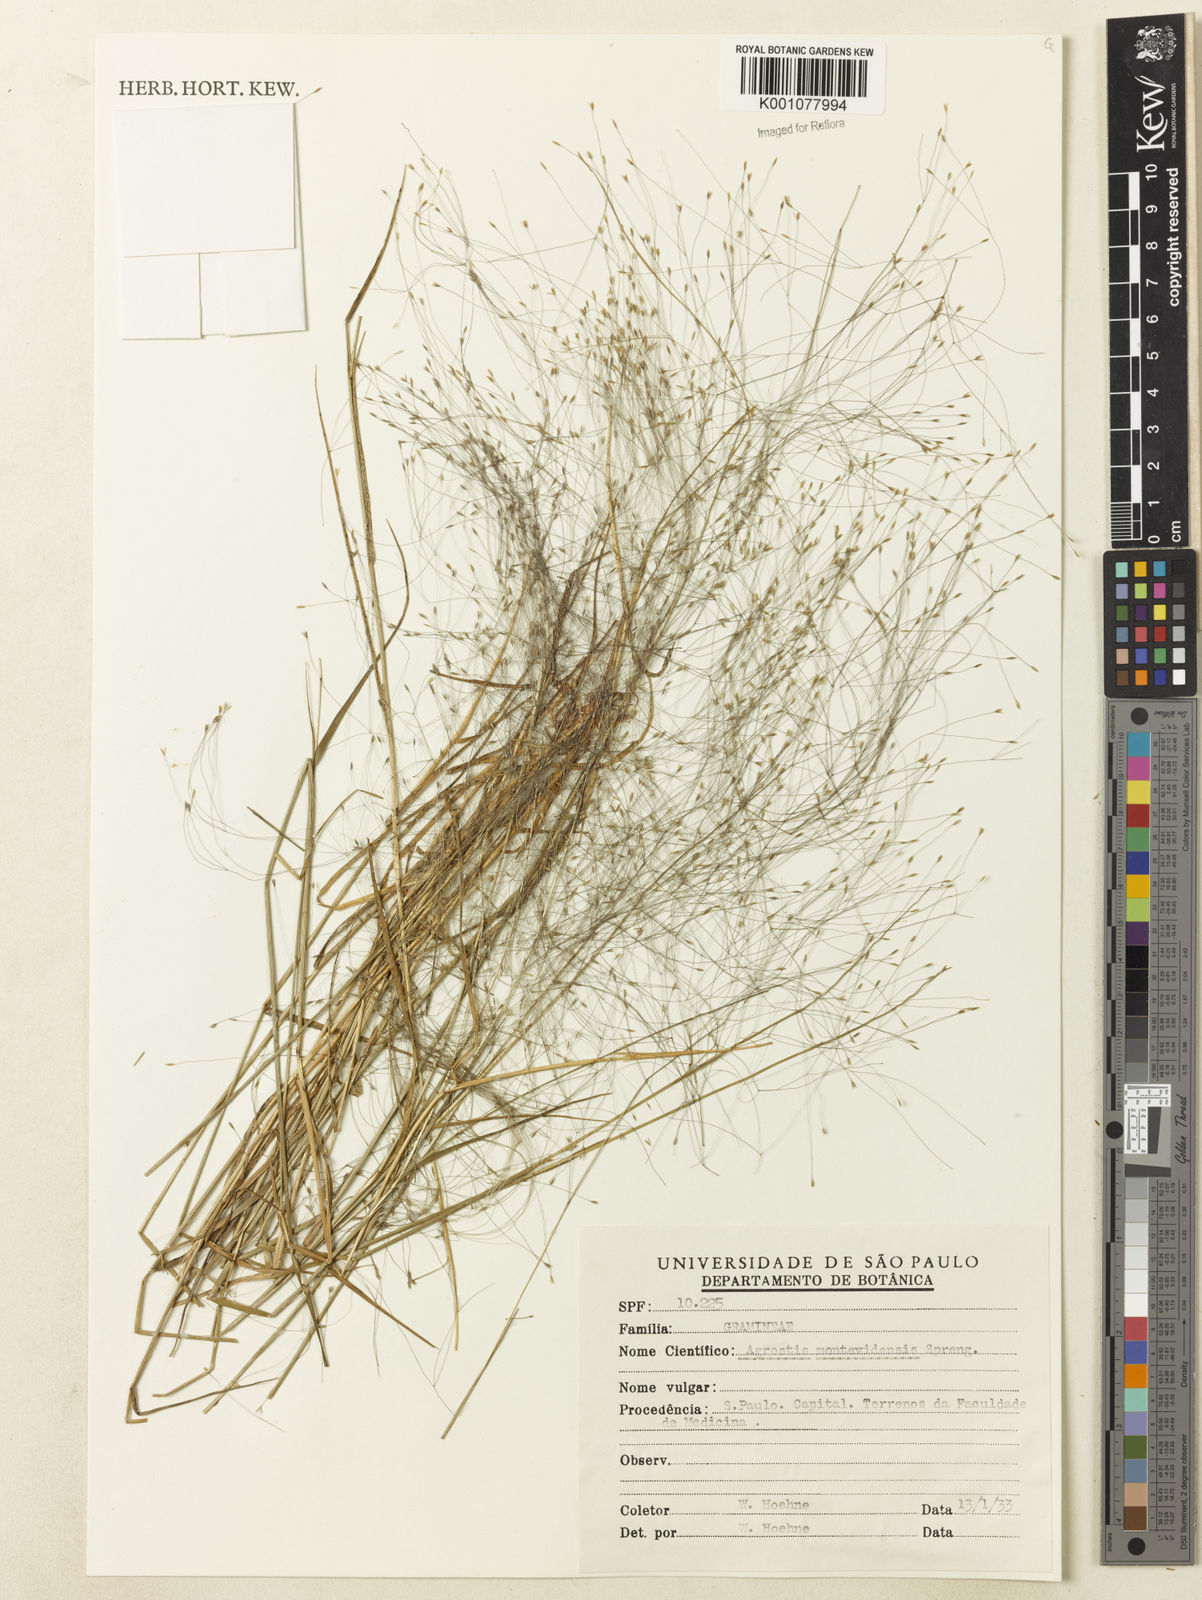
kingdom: Plantae
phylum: Tracheophyta
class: Liliopsida
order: Poales
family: Poaceae
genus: Agrostis
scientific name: Agrostis montevidensis
